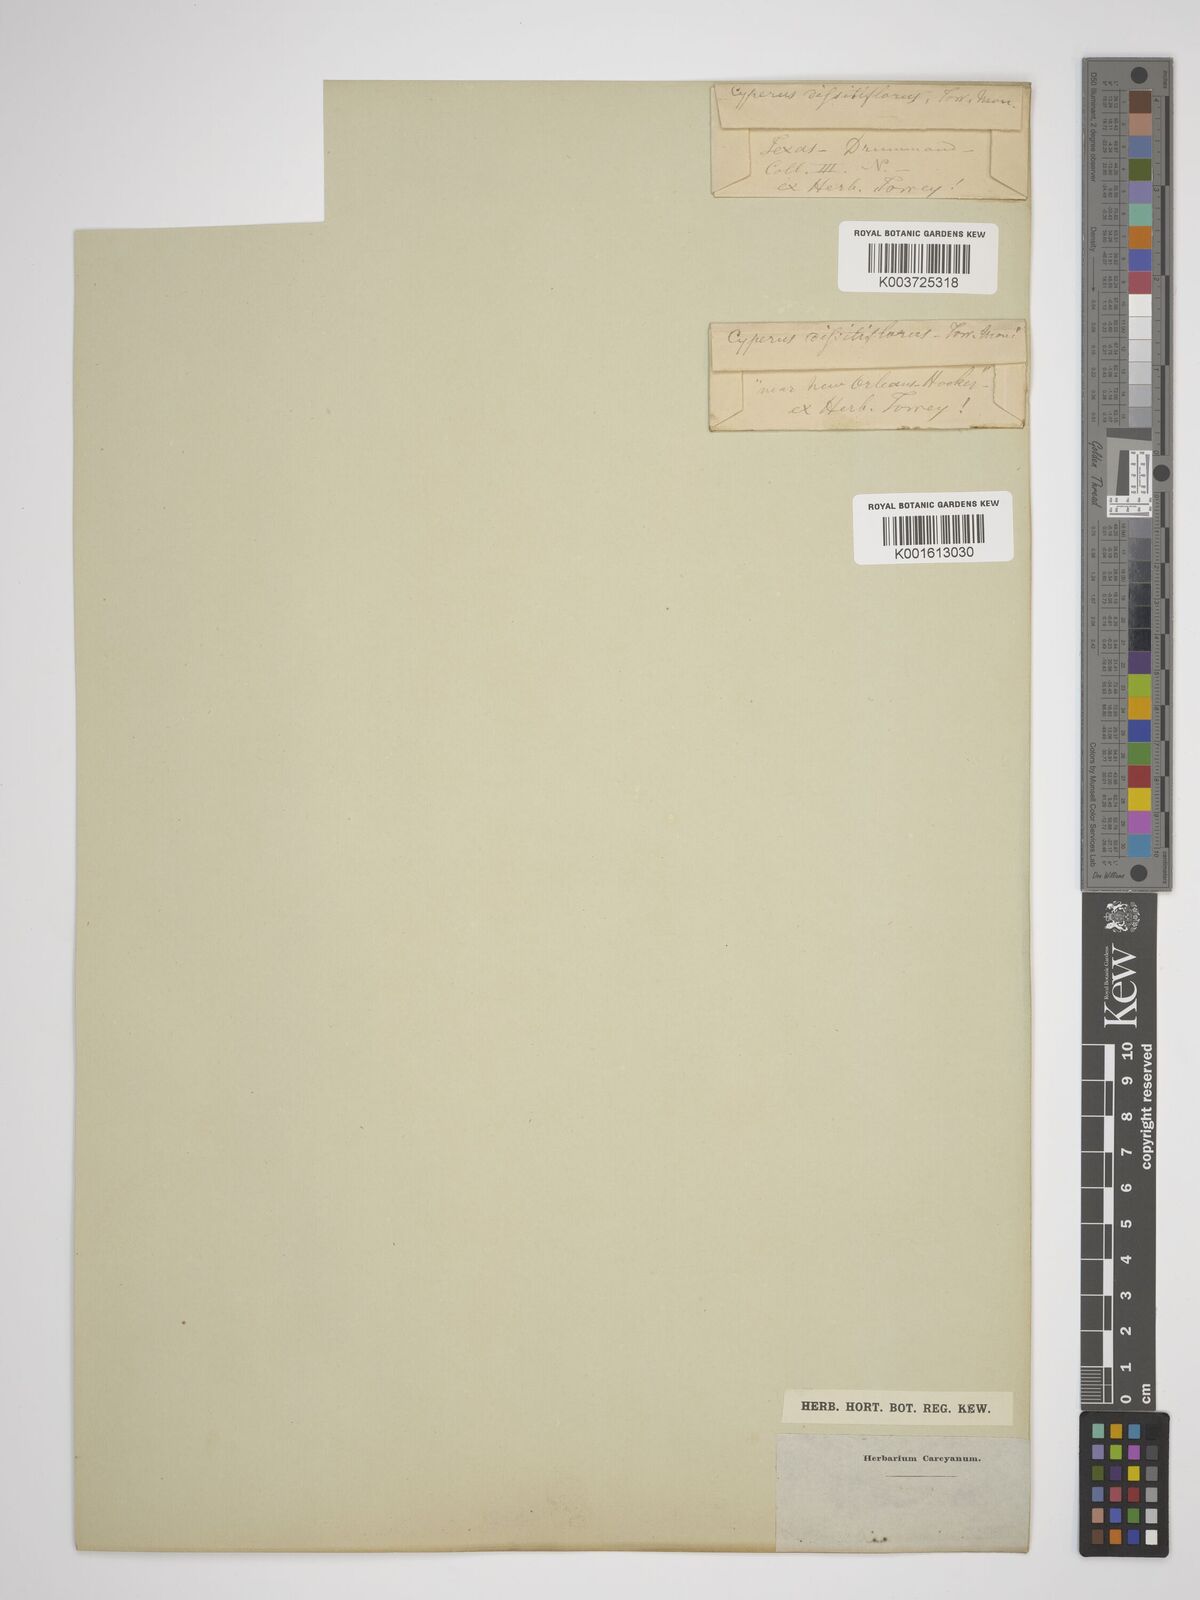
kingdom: Plantae
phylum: Tracheophyta
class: Liliopsida
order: Poales
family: Cyperaceae
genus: Cyperus
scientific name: Cyperus
